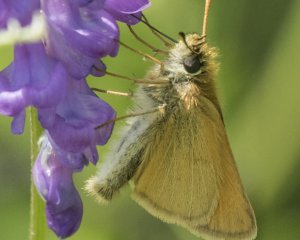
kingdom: Animalia
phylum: Arthropoda
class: Insecta
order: Lepidoptera
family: Hesperiidae
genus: Thymelicus
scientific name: Thymelicus lineola
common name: European Skipper
